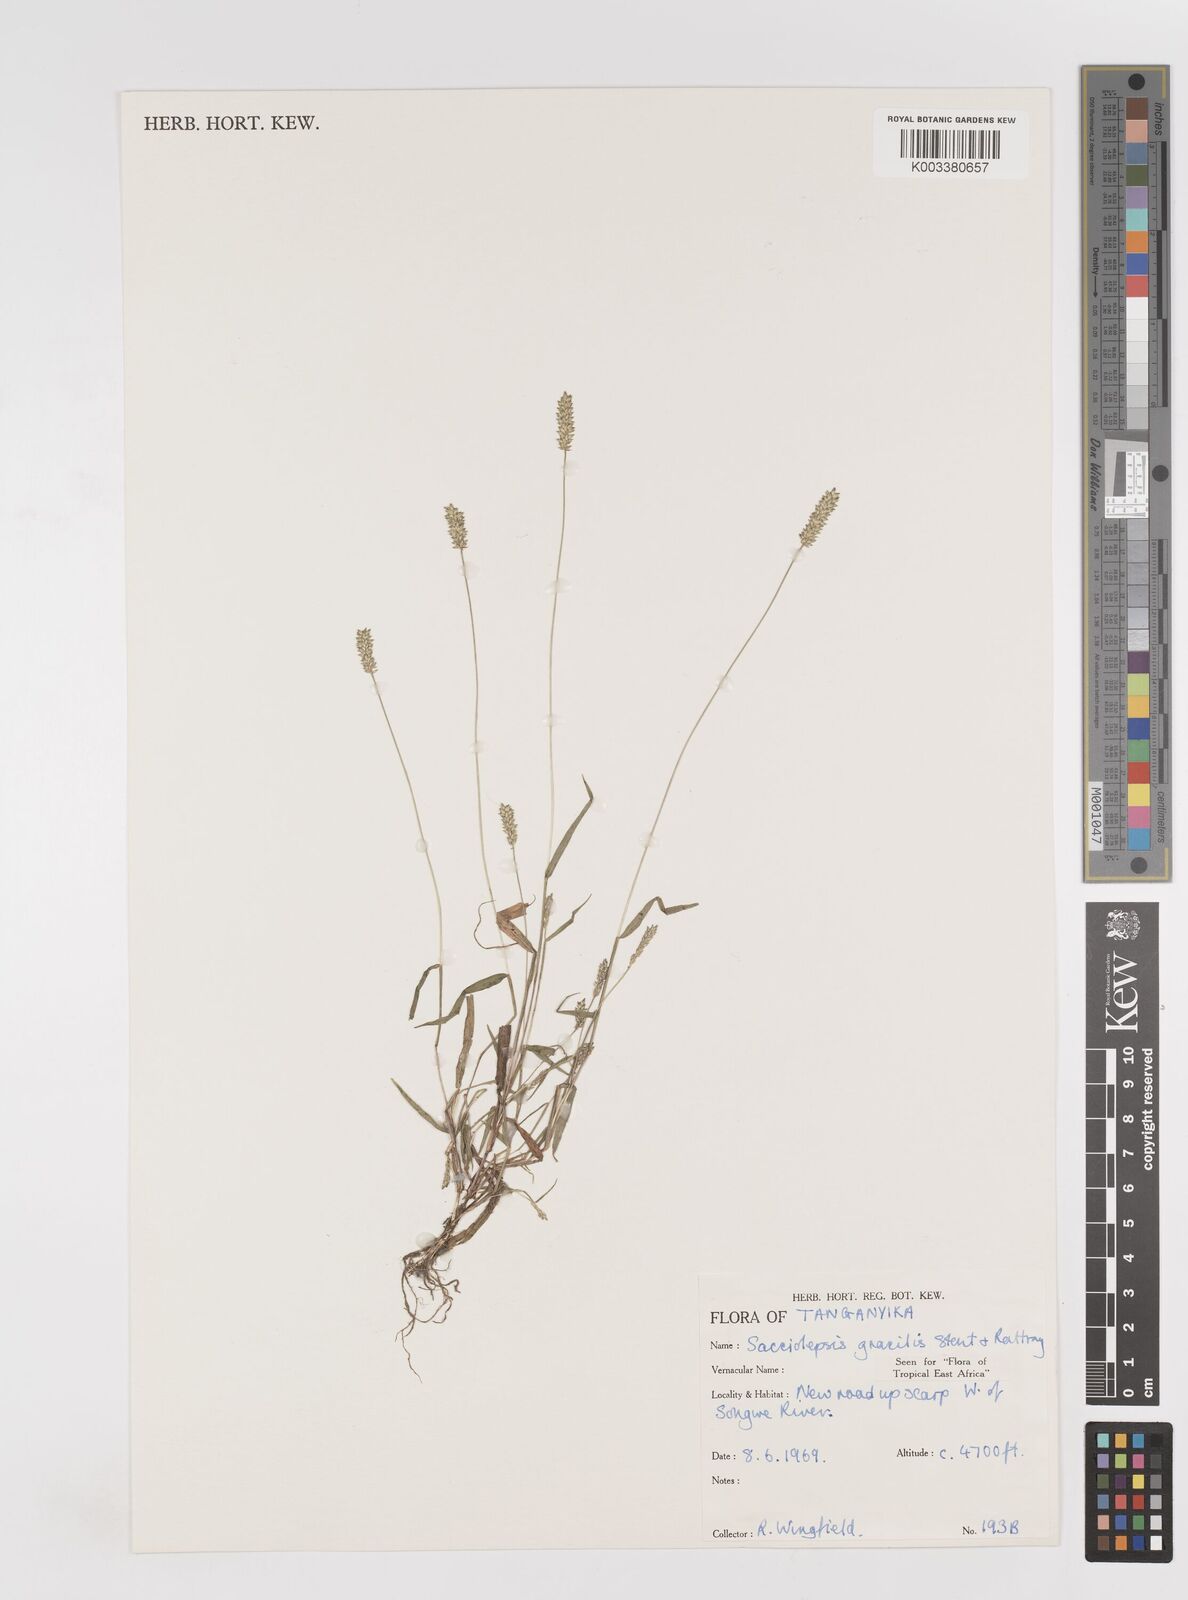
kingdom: Plantae
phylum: Tracheophyta
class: Liliopsida
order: Poales
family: Poaceae
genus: Sacciolepis
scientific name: Sacciolepis indica
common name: Glenwoodgrass
